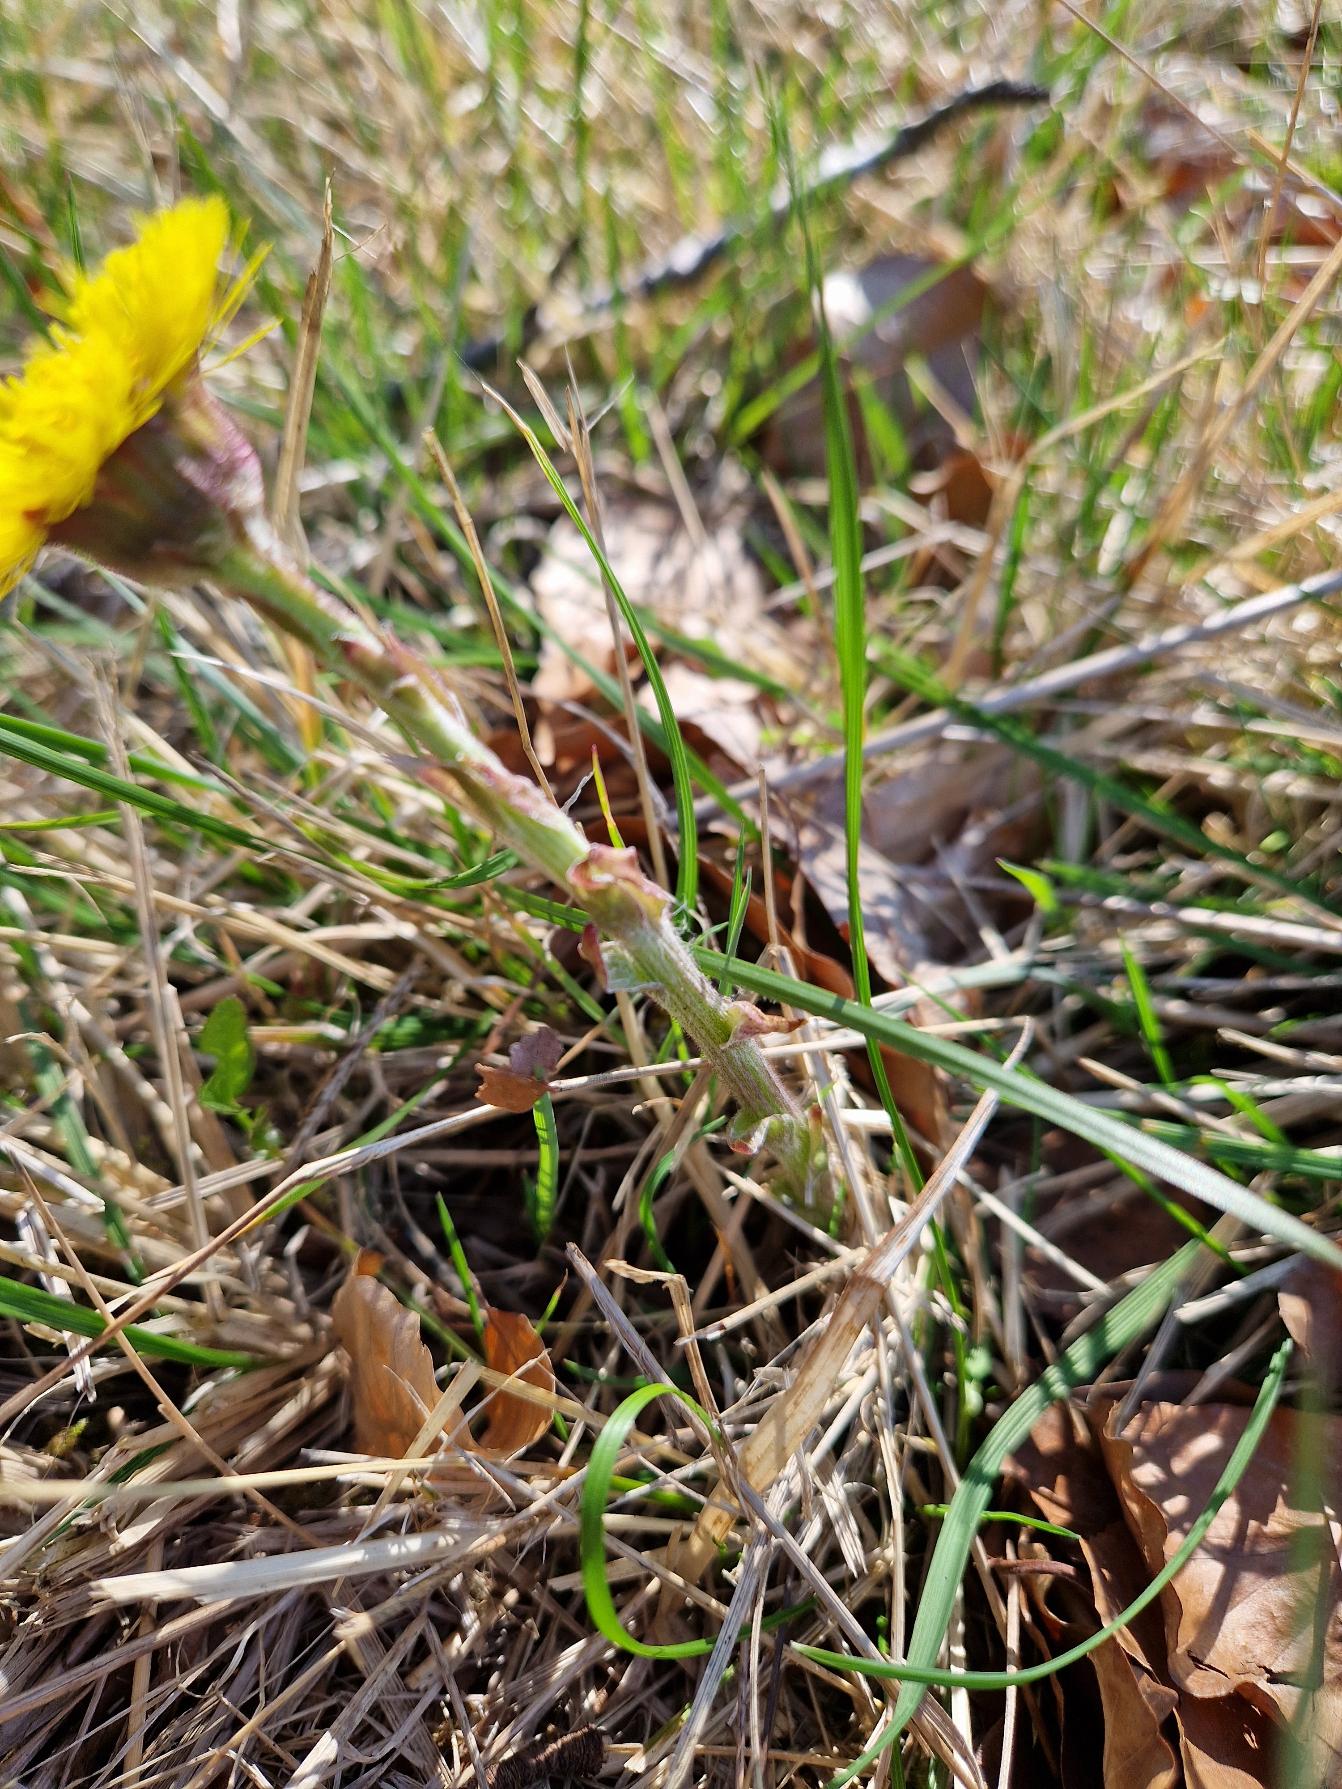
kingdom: Plantae
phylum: Tracheophyta
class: Magnoliopsida
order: Asterales
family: Asteraceae
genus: Tussilago
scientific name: Tussilago farfara
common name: Følfod
